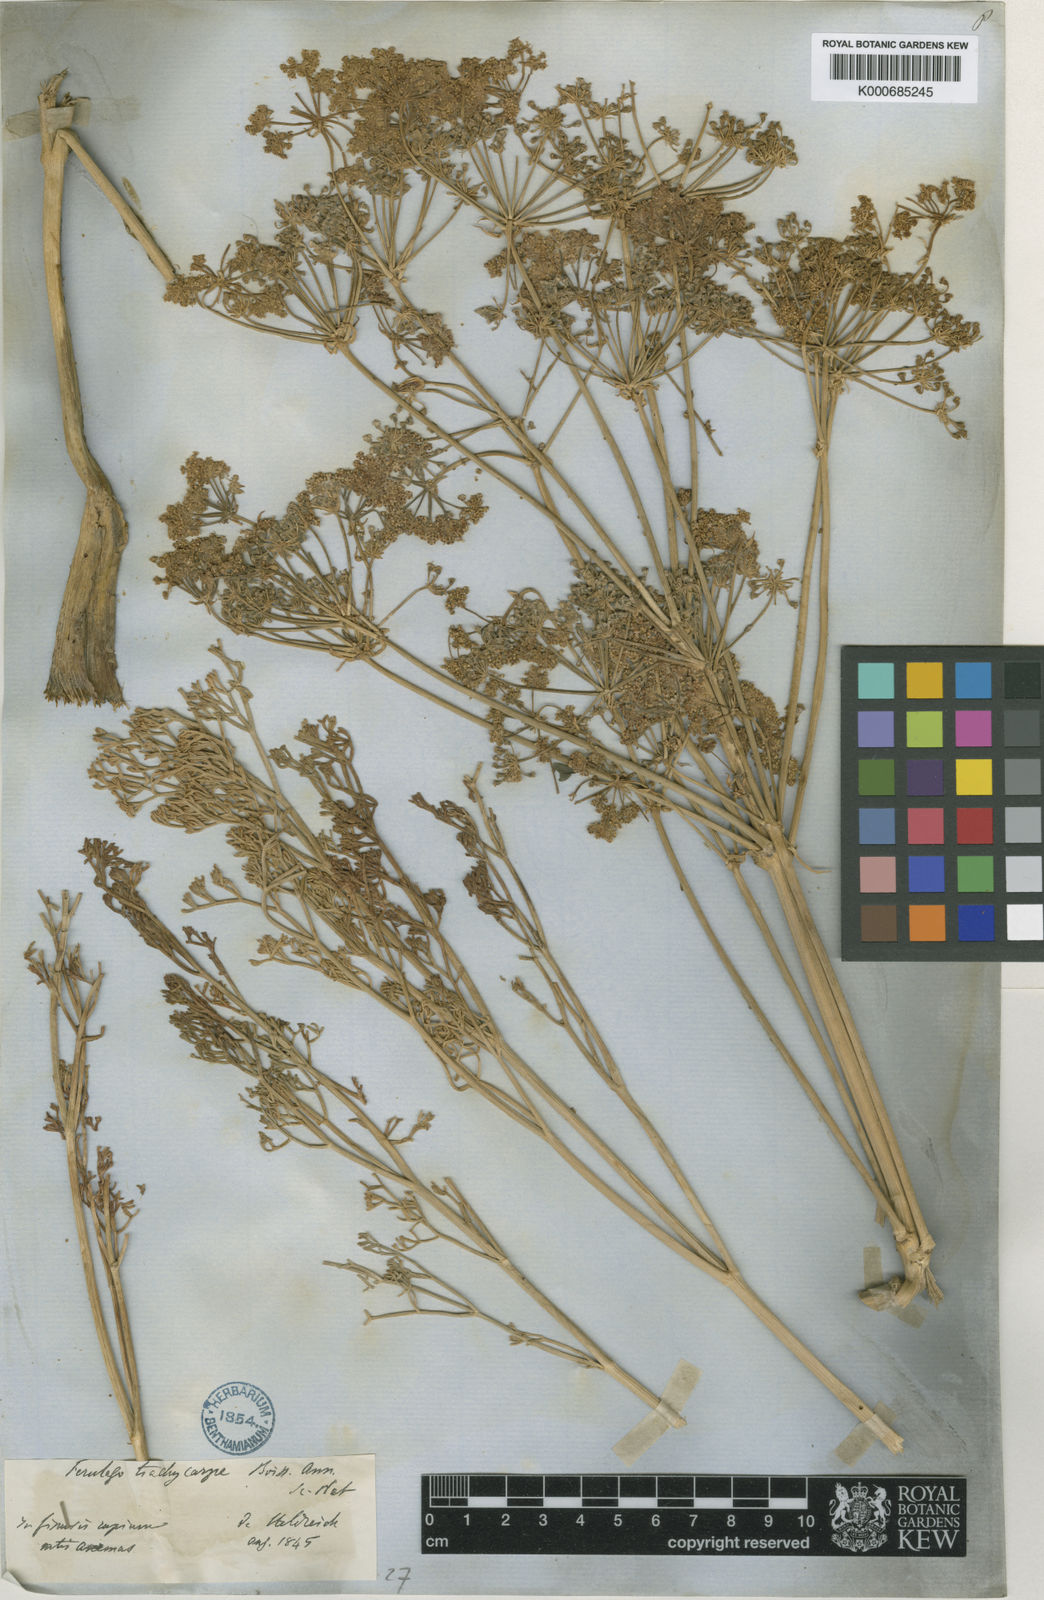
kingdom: Plantae
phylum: Tracheophyta
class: Magnoliopsida
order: Apiales
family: Apiaceae
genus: Ferulago
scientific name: Ferulago trachycarpa
